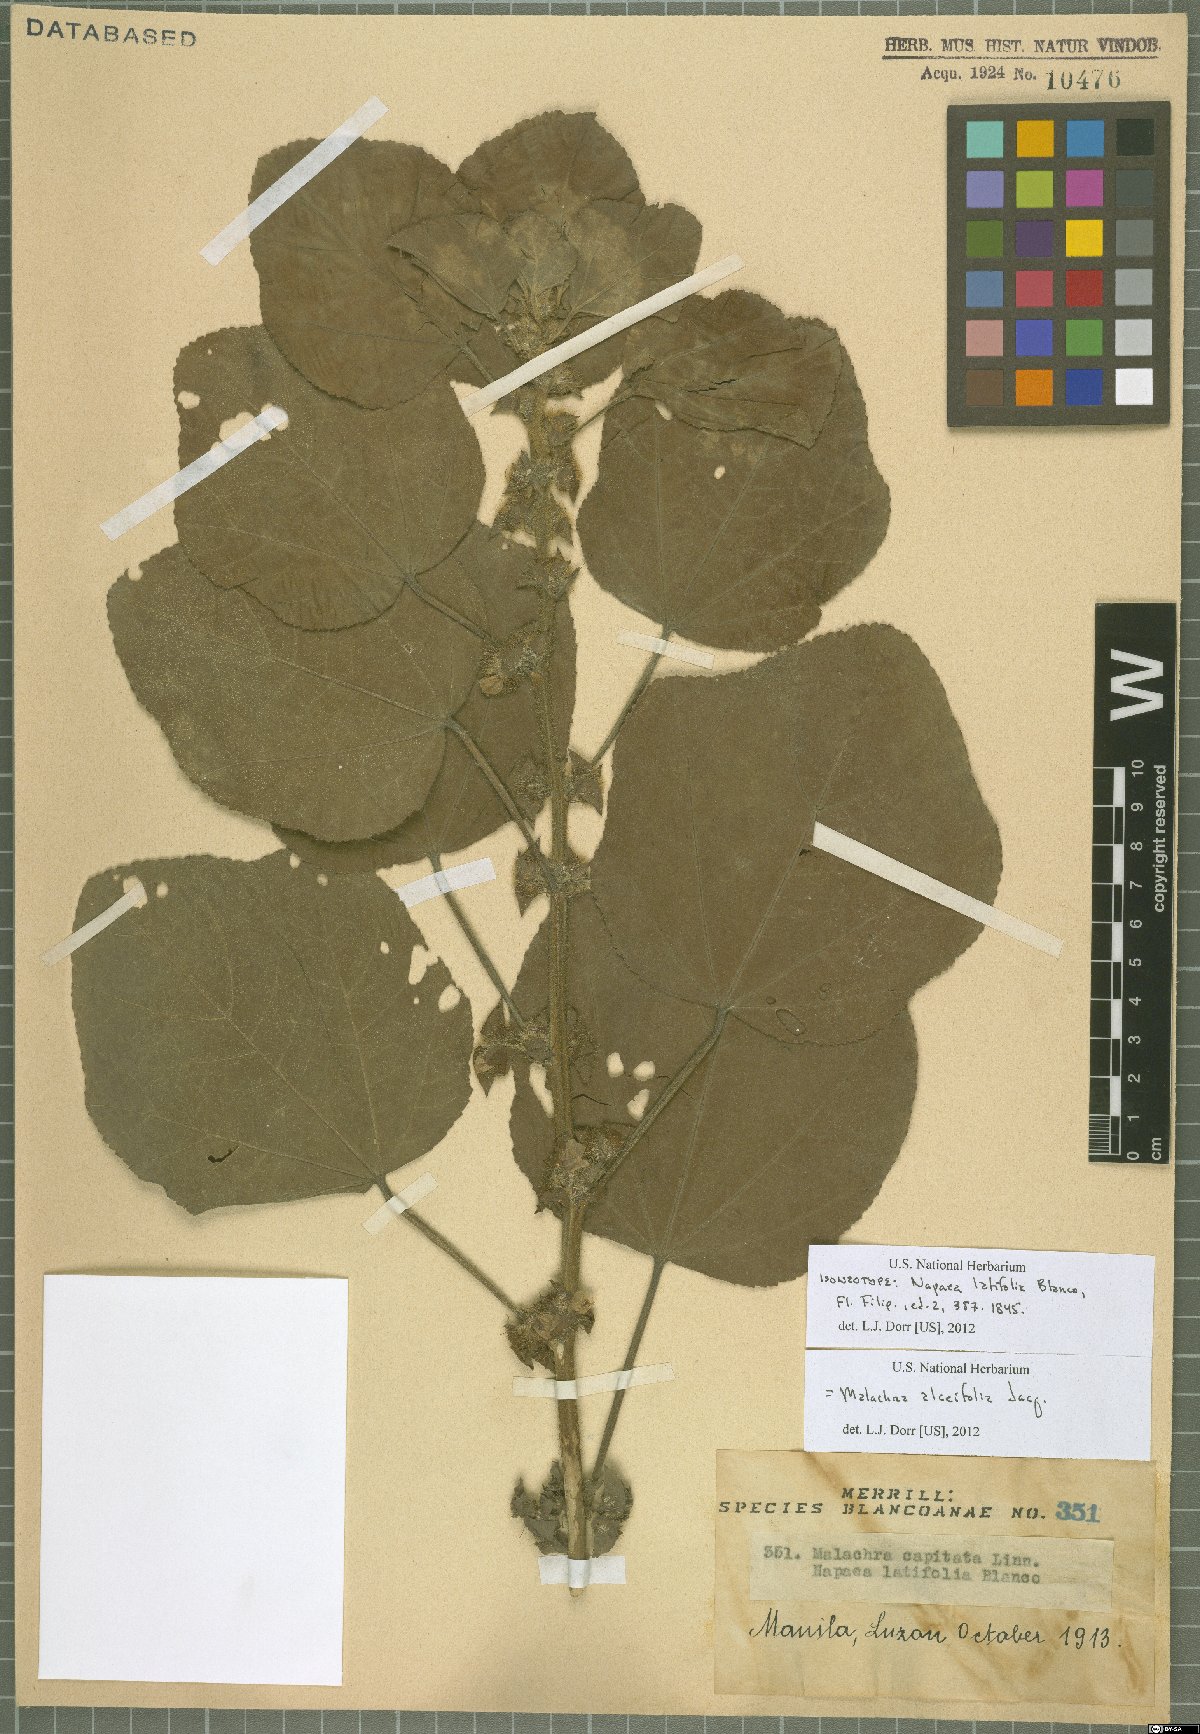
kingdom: Plantae
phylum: Tracheophyta
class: Magnoliopsida
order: Malvales
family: Malvaceae
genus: Malachra
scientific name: Malachra alceifolia
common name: Yellow leafbract
